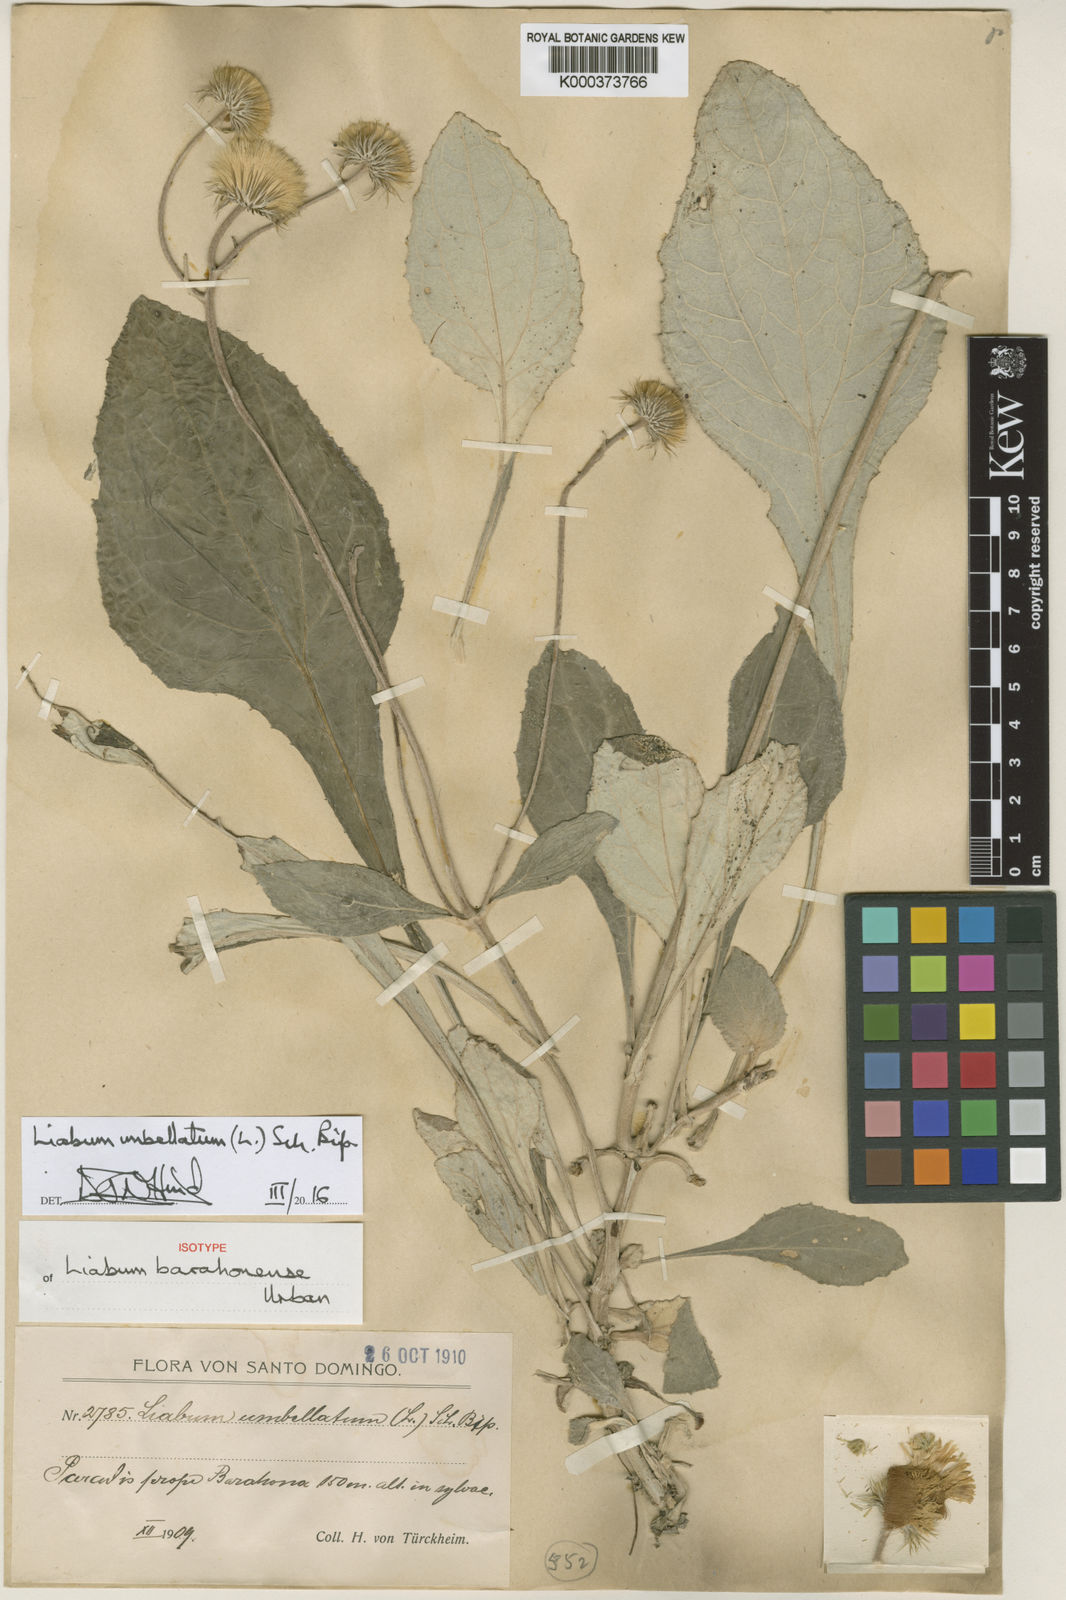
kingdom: Plantae
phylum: Tracheophyta
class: Magnoliopsida
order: Asterales
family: Asteraceae
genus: Liabum
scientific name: Liabum umbellatum
